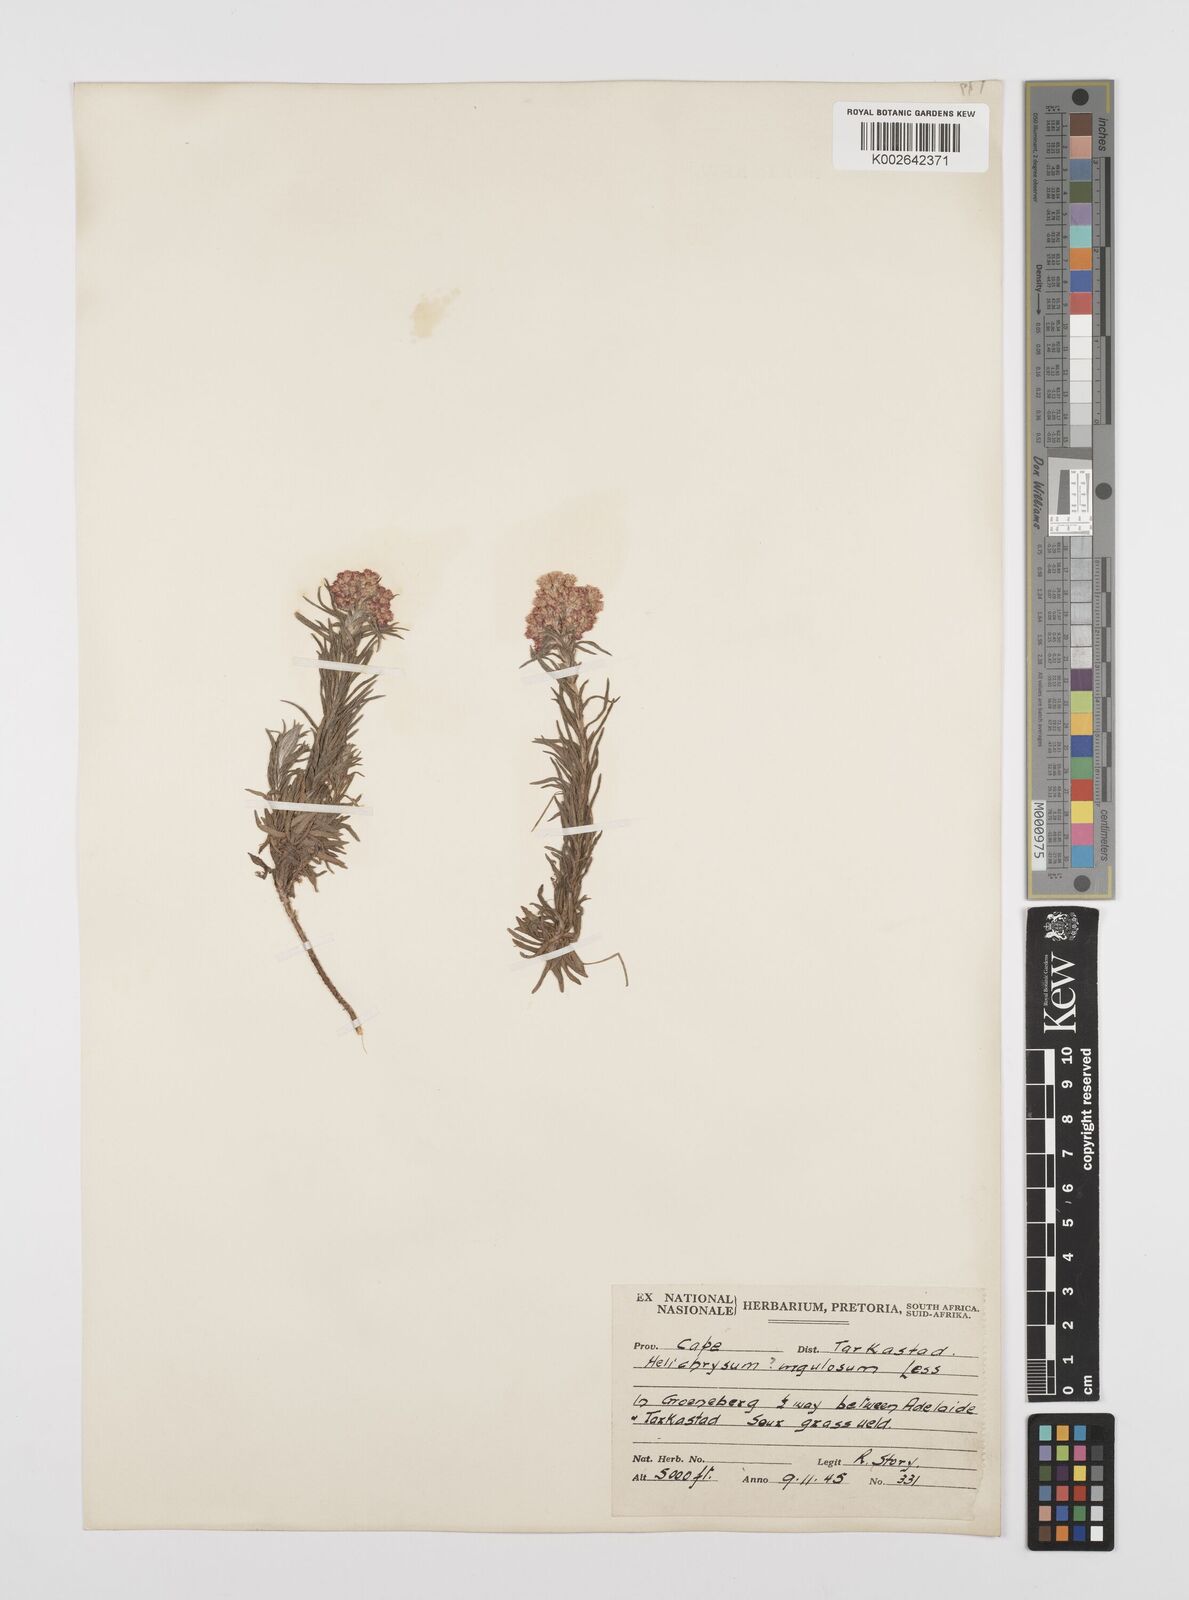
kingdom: Plantae
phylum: Tracheophyta
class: Magnoliopsida
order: Asterales
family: Asteraceae
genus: Helichrysum
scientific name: Helichrysum rugulosum
